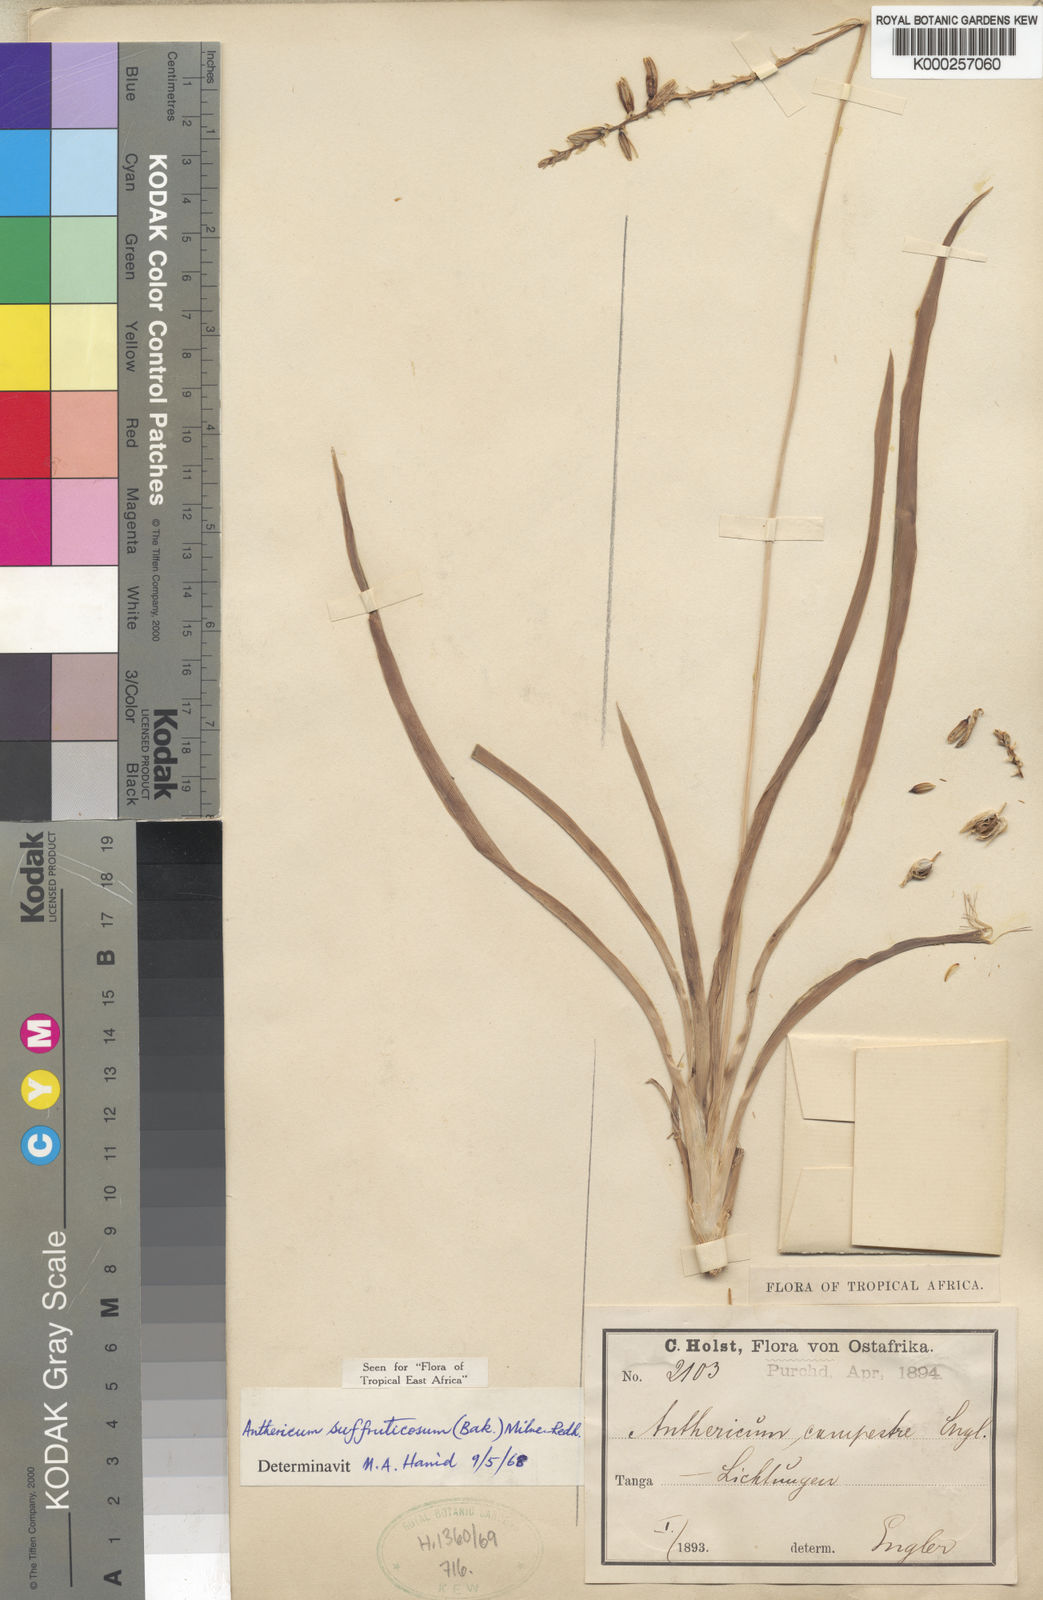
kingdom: Plantae
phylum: Tracheophyta
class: Liliopsida
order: Asparagales
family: Asparagaceae
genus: Chlorophytum
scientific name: Chlorophytum suffruticosum
